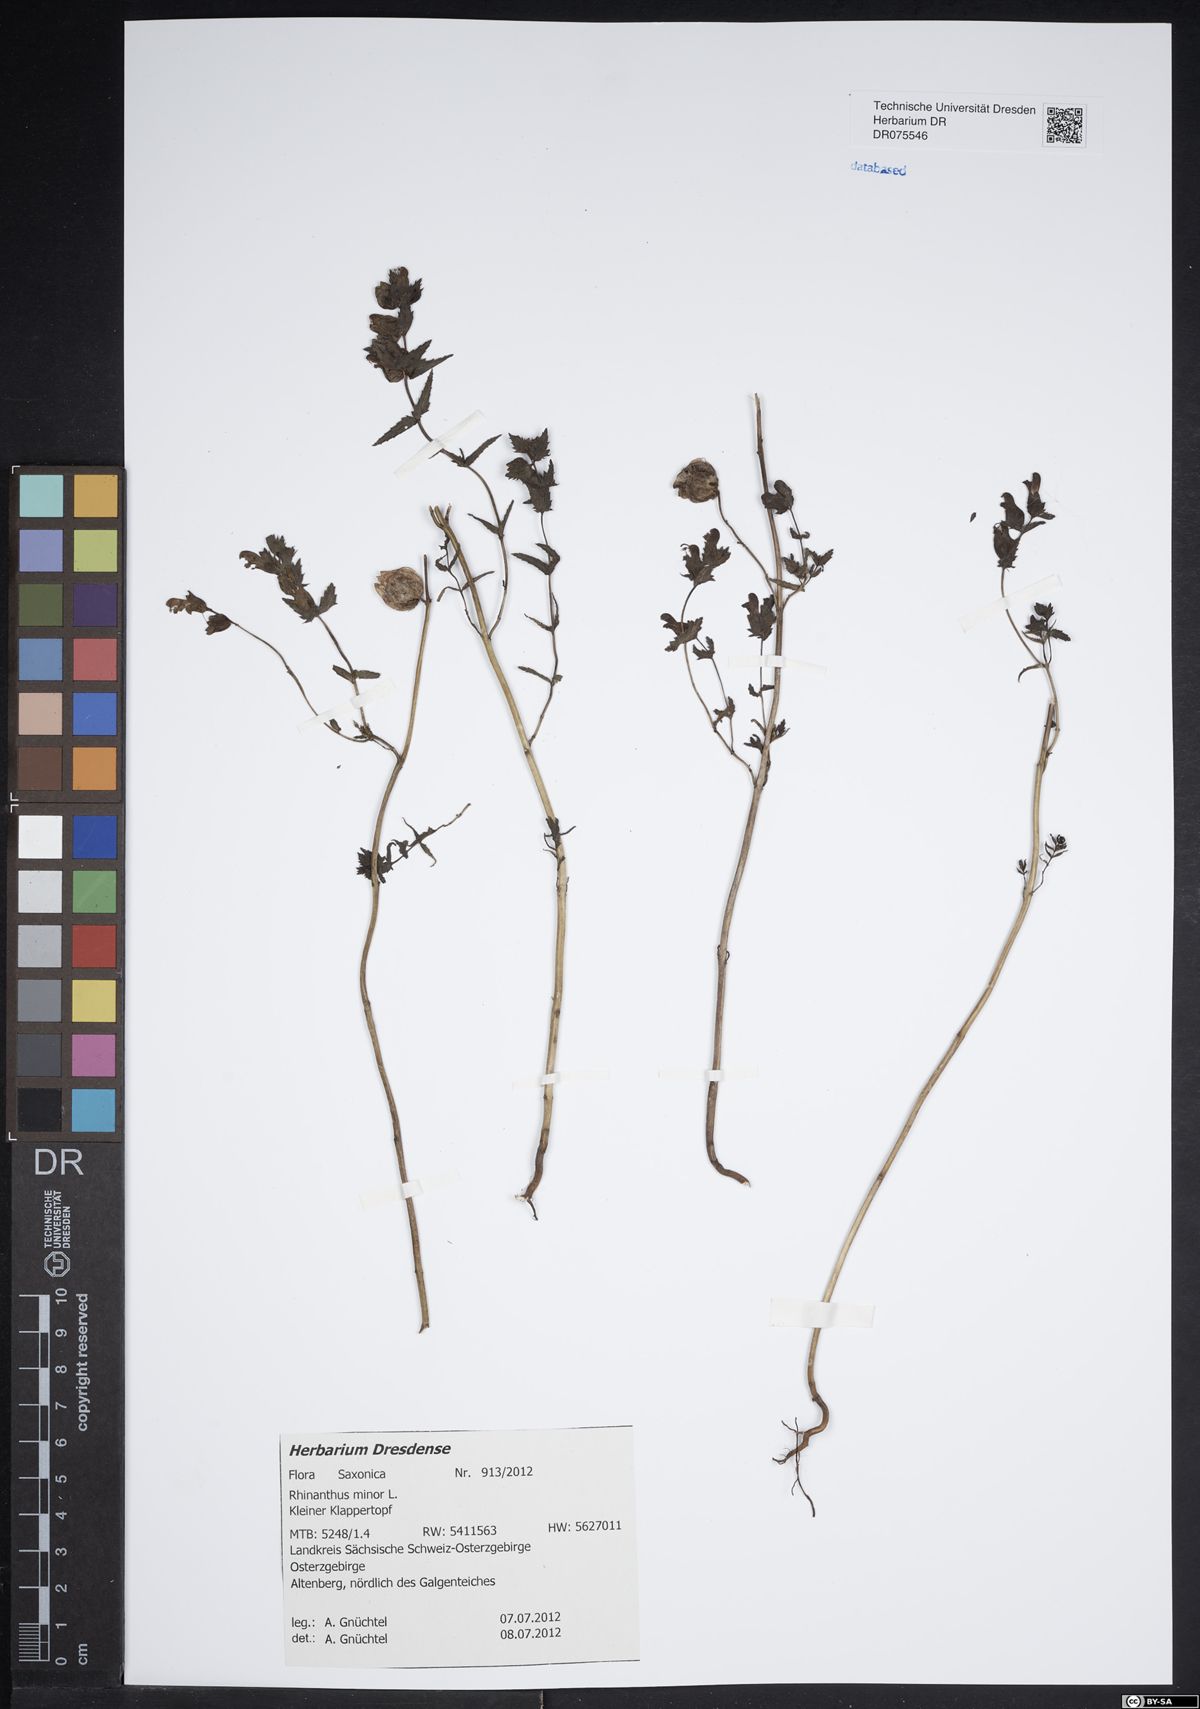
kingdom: Plantae
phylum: Tracheophyta
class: Magnoliopsida
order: Lamiales
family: Orobanchaceae
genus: Rhinanthus
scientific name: Rhinanthus minor
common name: Yellow-rattle
